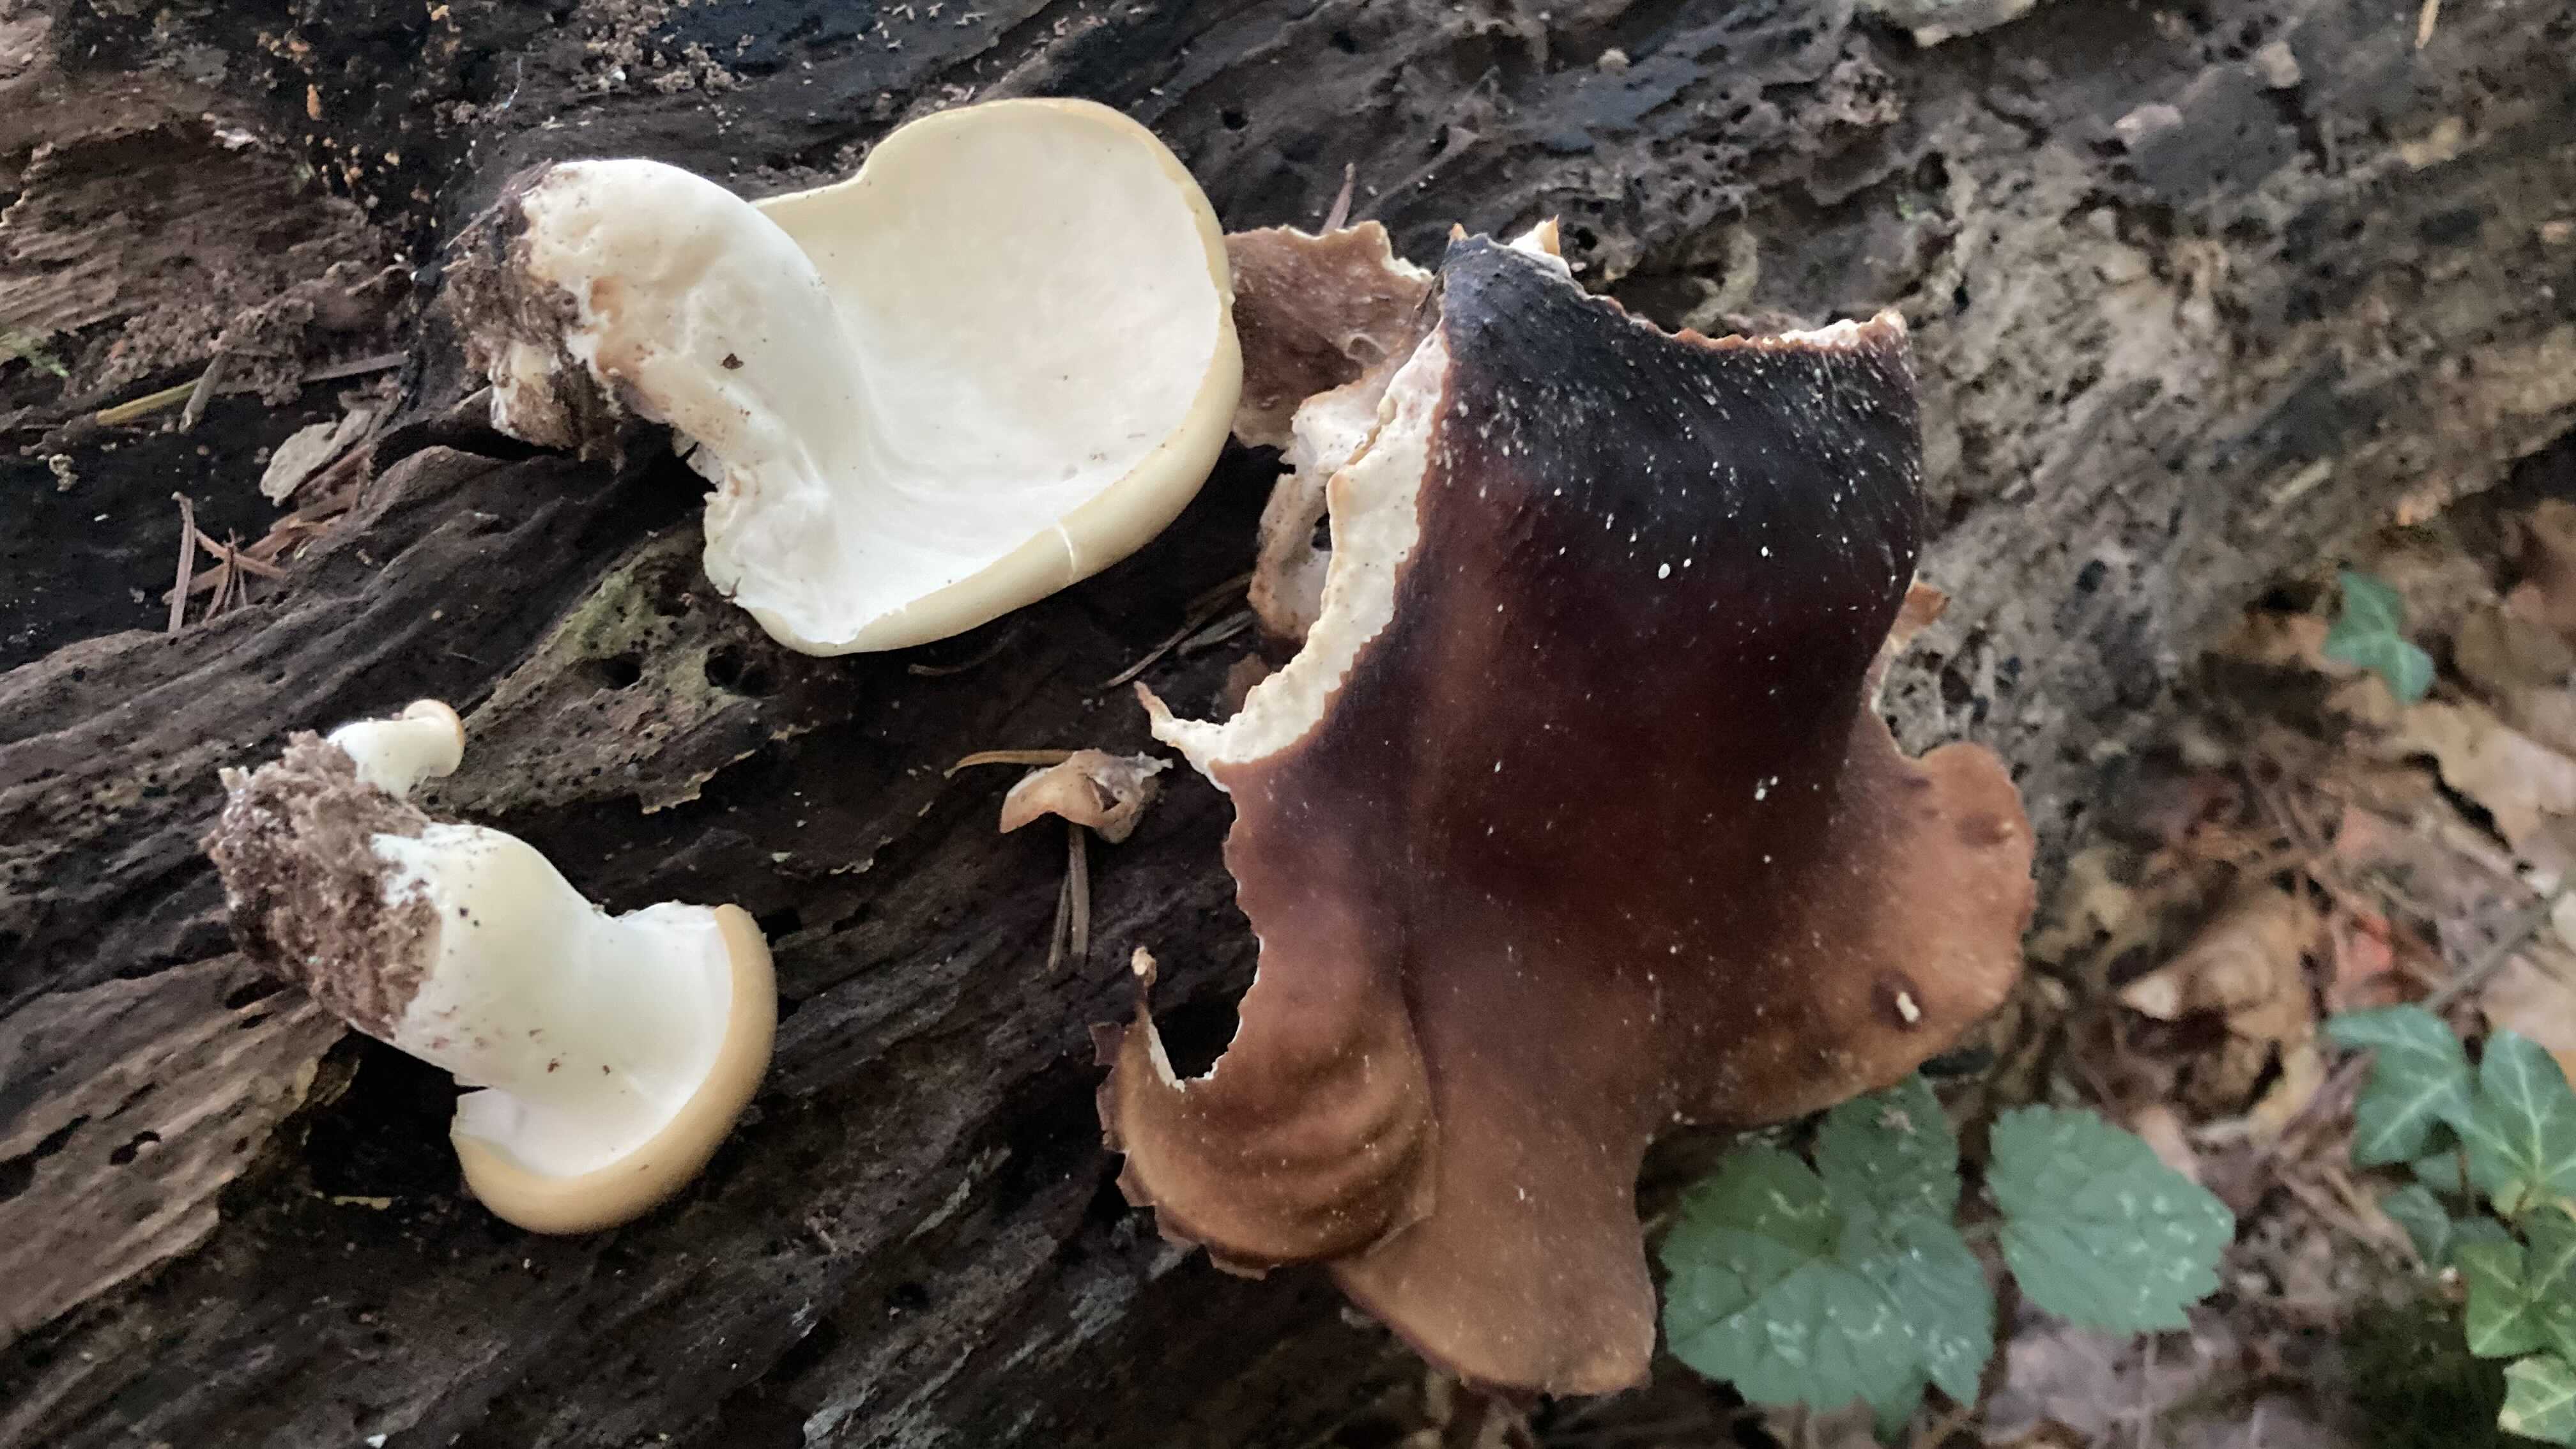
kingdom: Fungi
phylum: Basidiomycota
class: Agaricomycetes
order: Polyporales
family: Polyporaceae
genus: Picipes
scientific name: Picipes badius
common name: kastaniebrun stilkporesvamp
